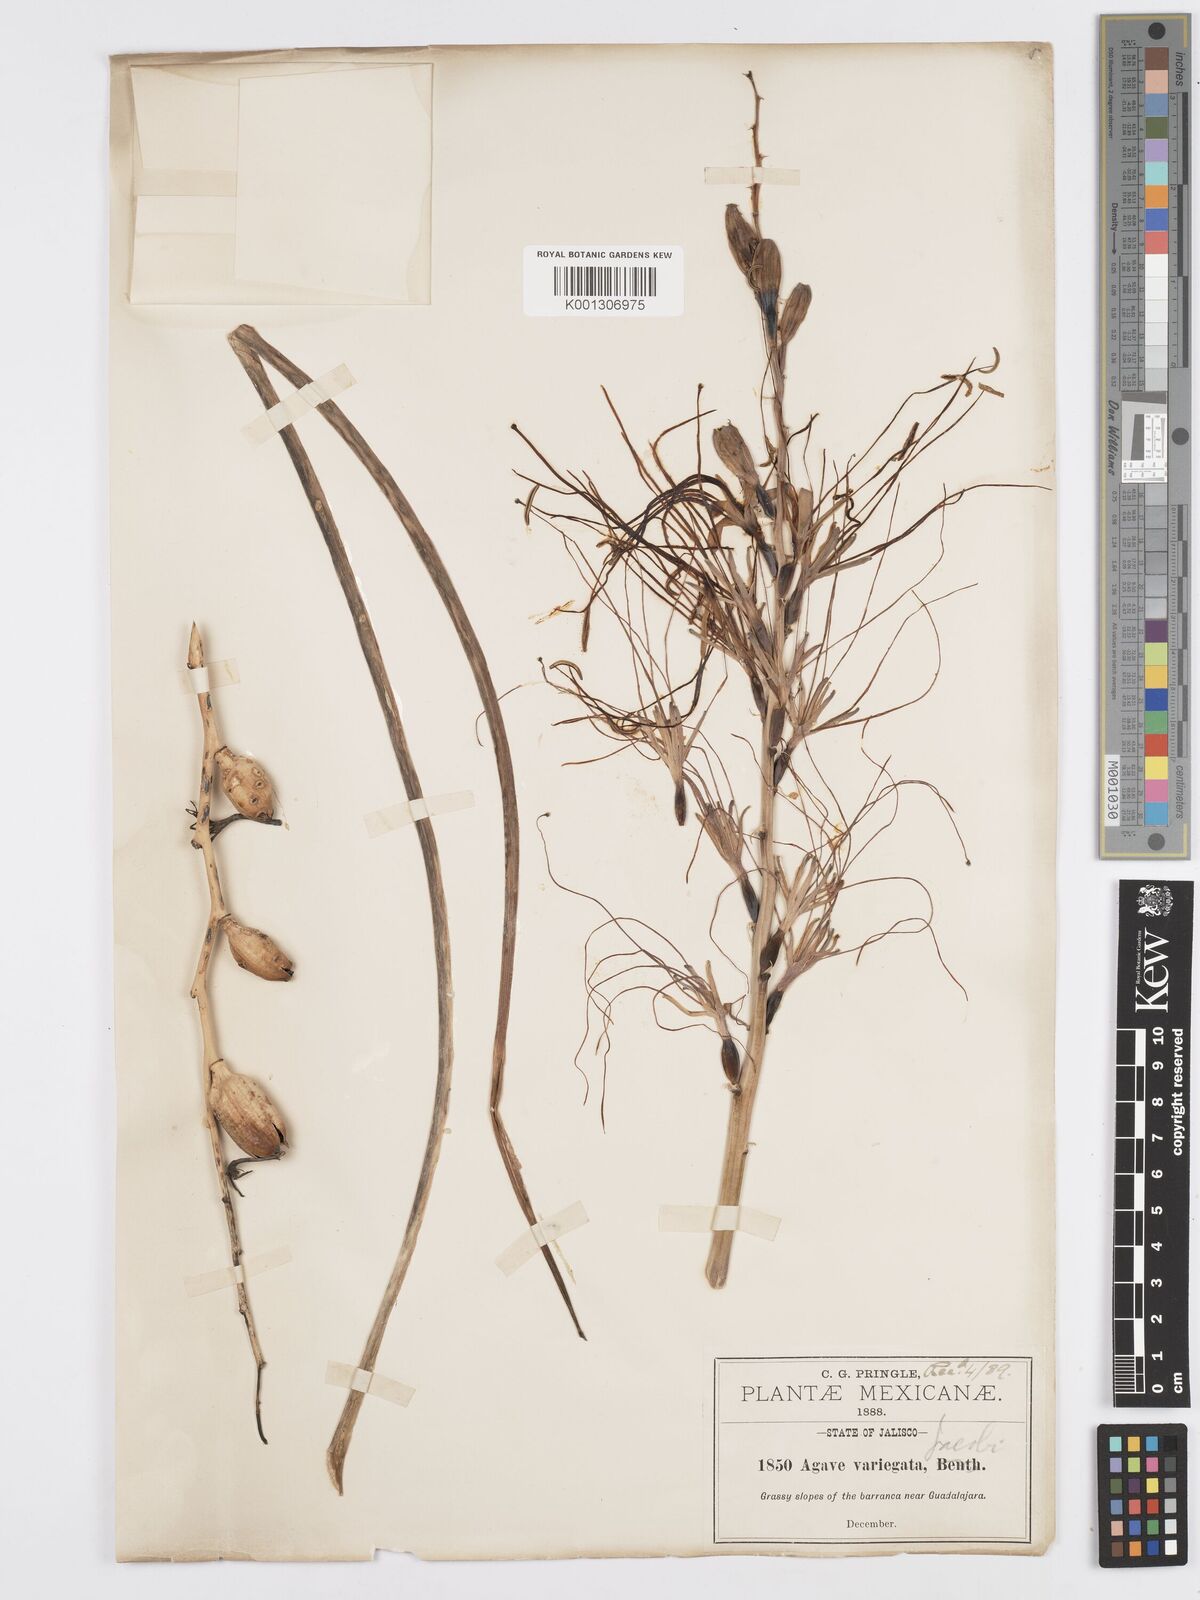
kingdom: Plantae
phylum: Tracheophyta
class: Liliopsida
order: Asparagales
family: Asparagaceae
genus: Agave
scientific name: Agave variegata
